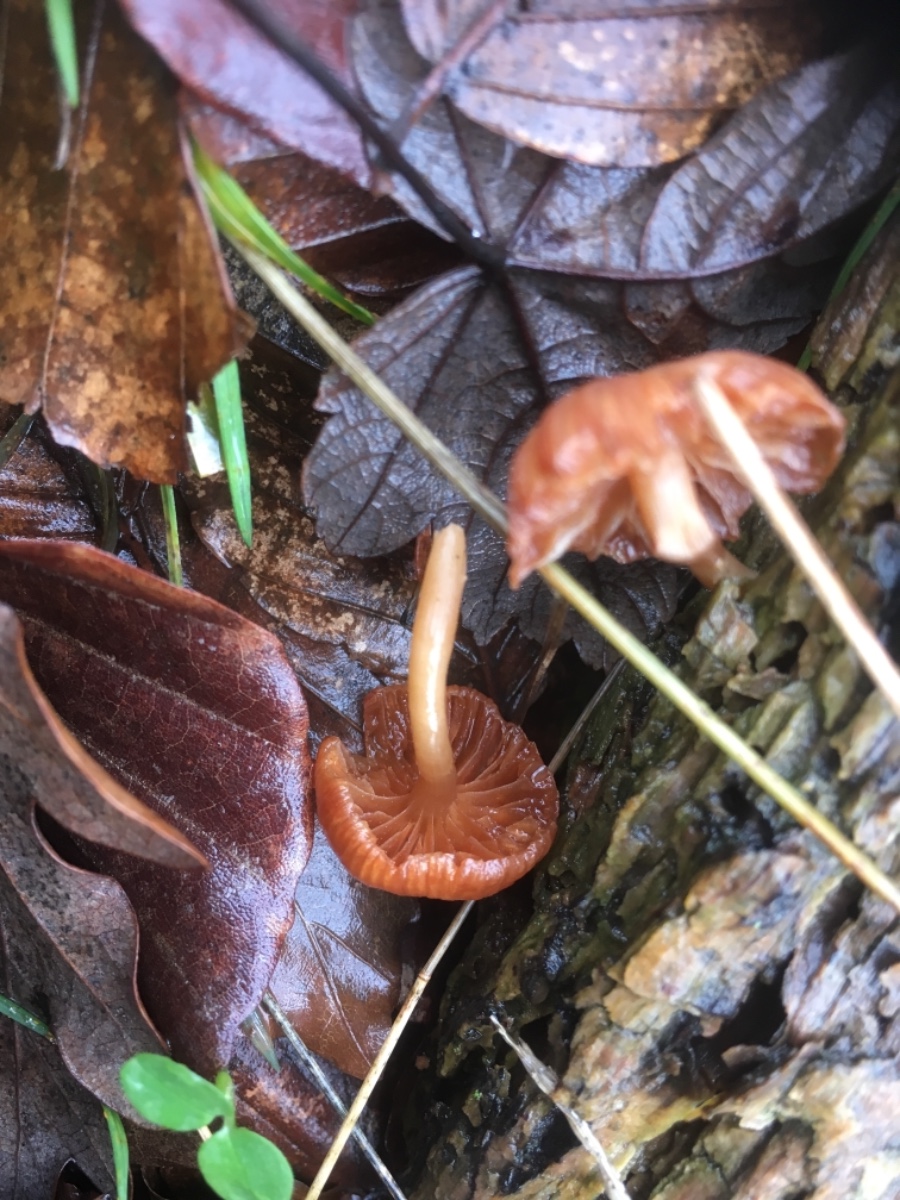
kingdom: Fungi
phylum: Basidiomycota
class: Agaricomycetes
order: Agaricales
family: Tubariaceae
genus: Tubaria
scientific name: Tubaria furfuracea
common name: kliddet fnughat
